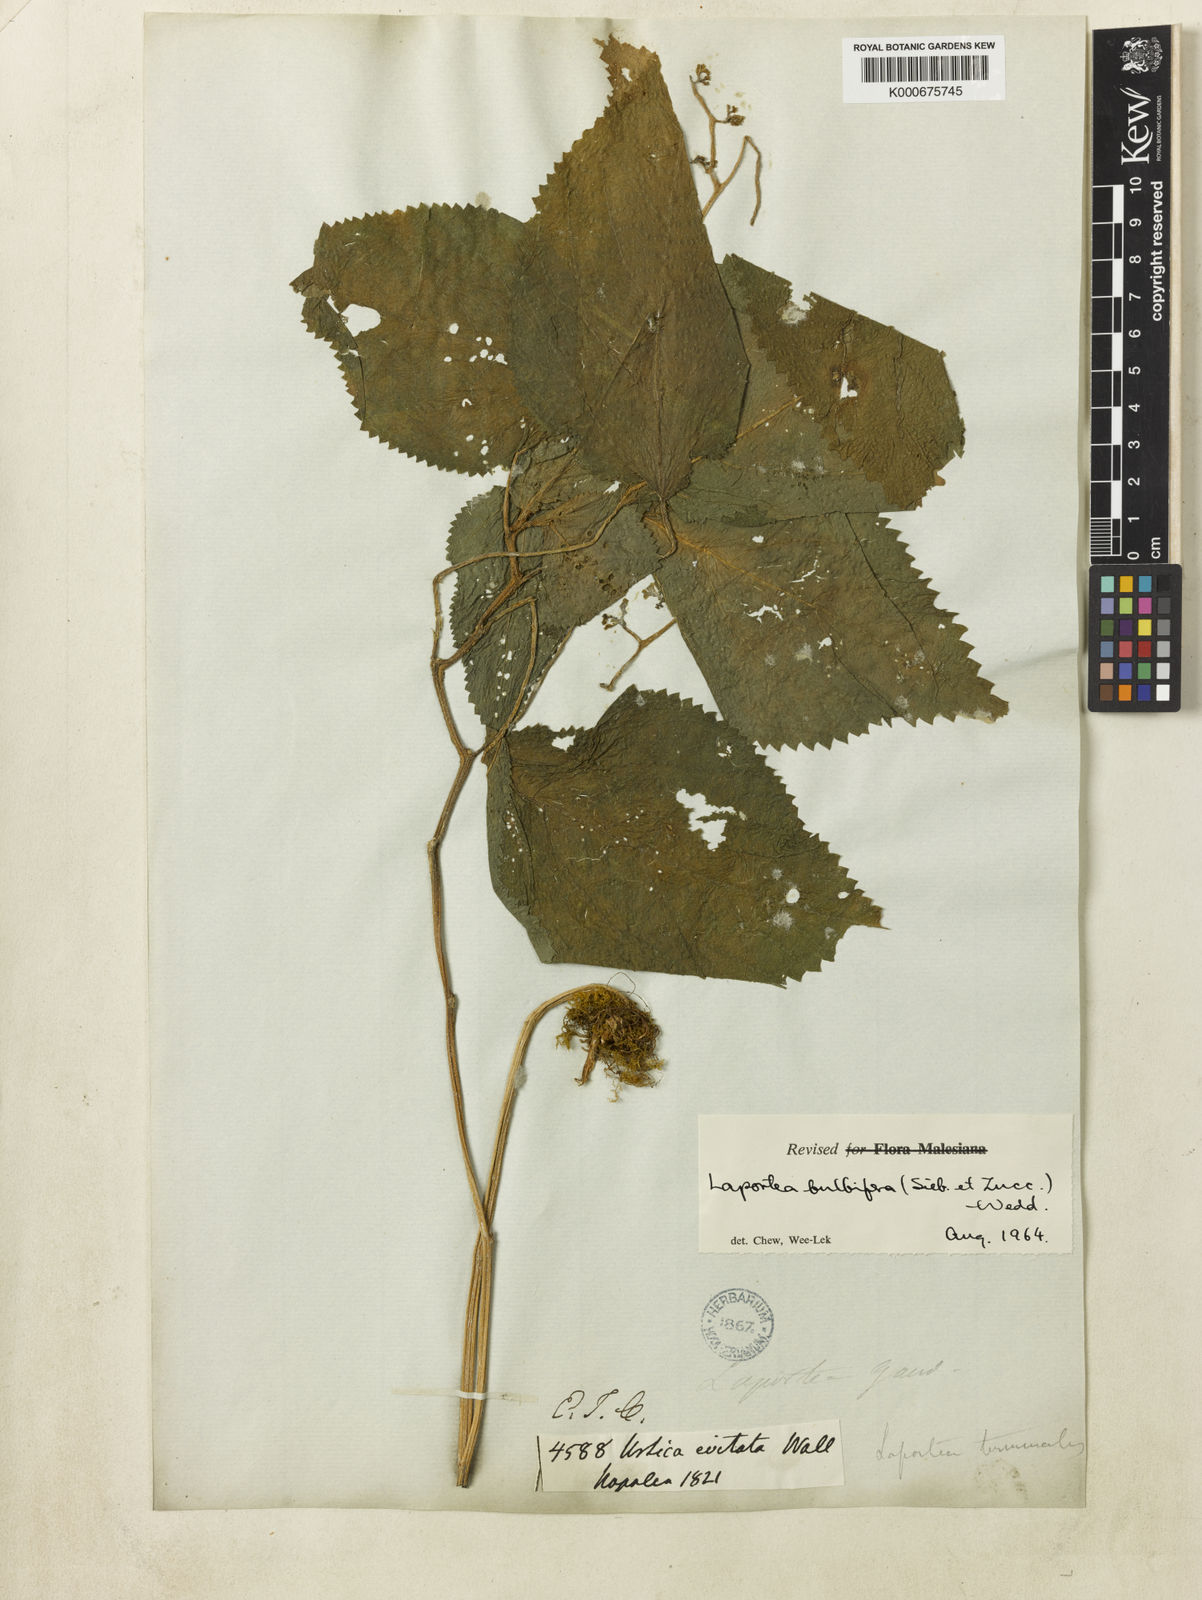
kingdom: Plantae
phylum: Tracheophyta
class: Magnoliopsida
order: Rosales
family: Urticaceae
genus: Laportea
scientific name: Laportea bulbifera
